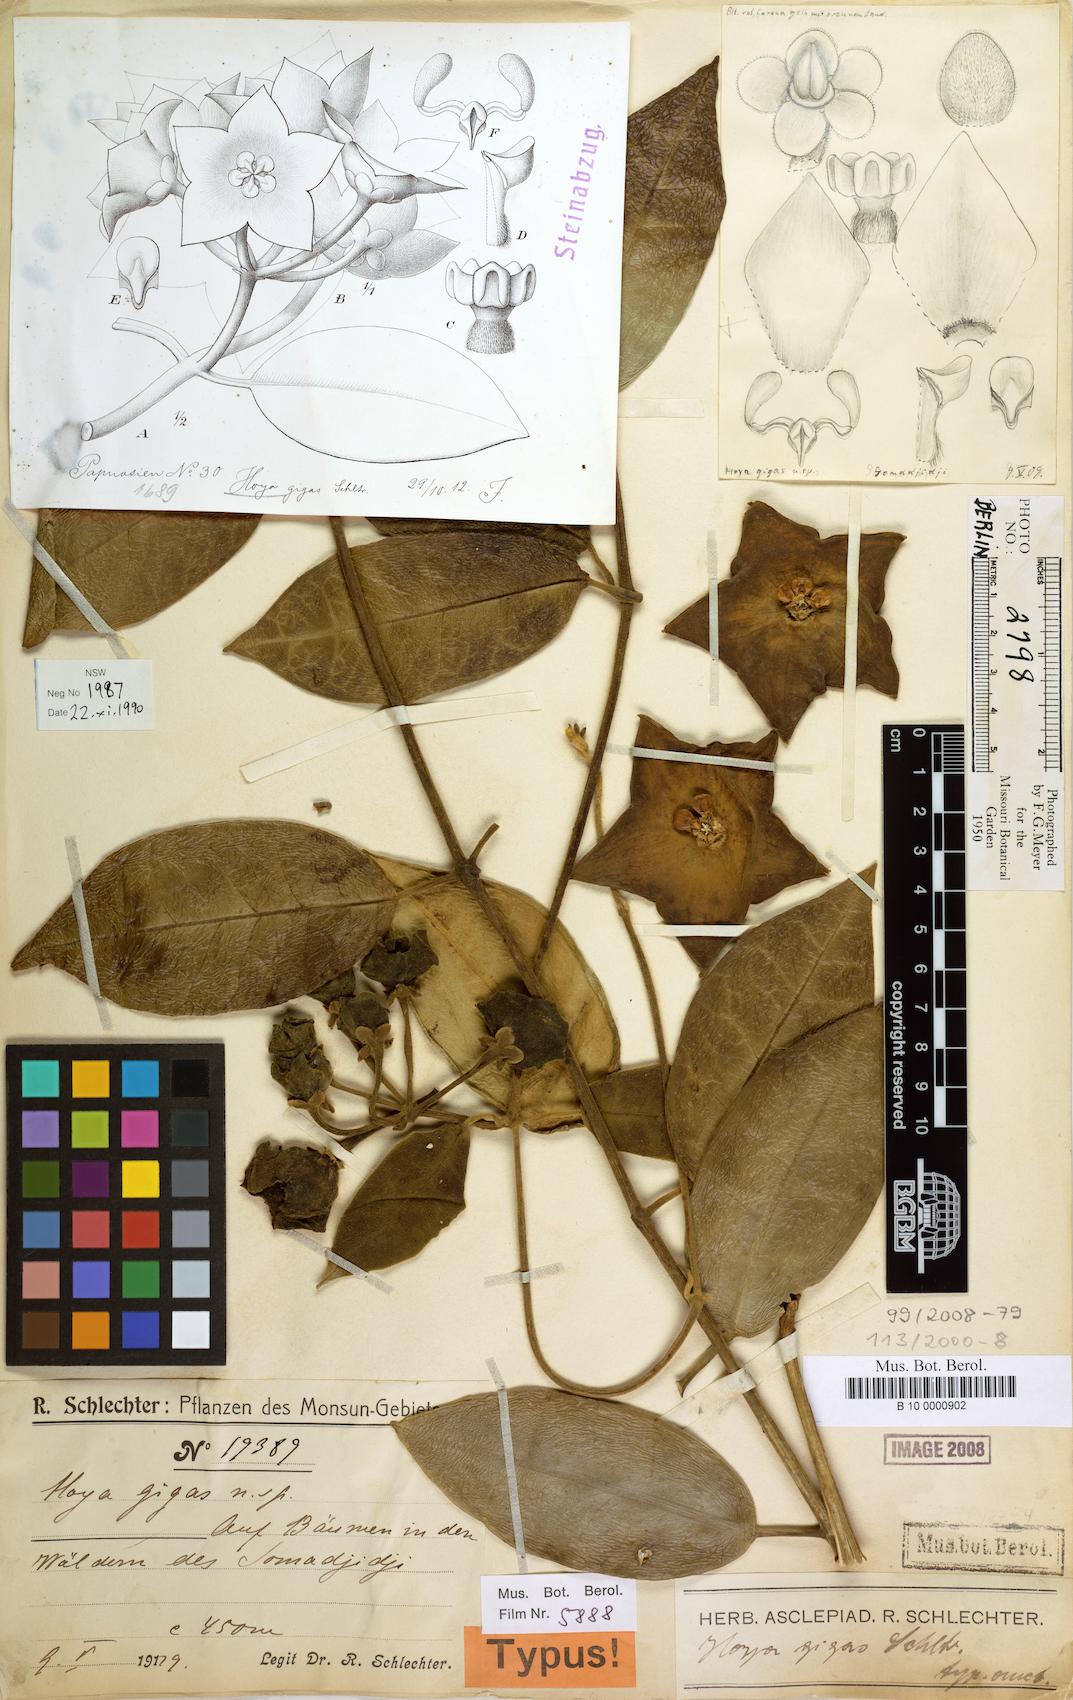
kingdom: Plantae
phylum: Tracheophyta
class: Magnoliopsida
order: Gentianales
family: Apocynaceae
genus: Eriostemma
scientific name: Eriostemma gigas
